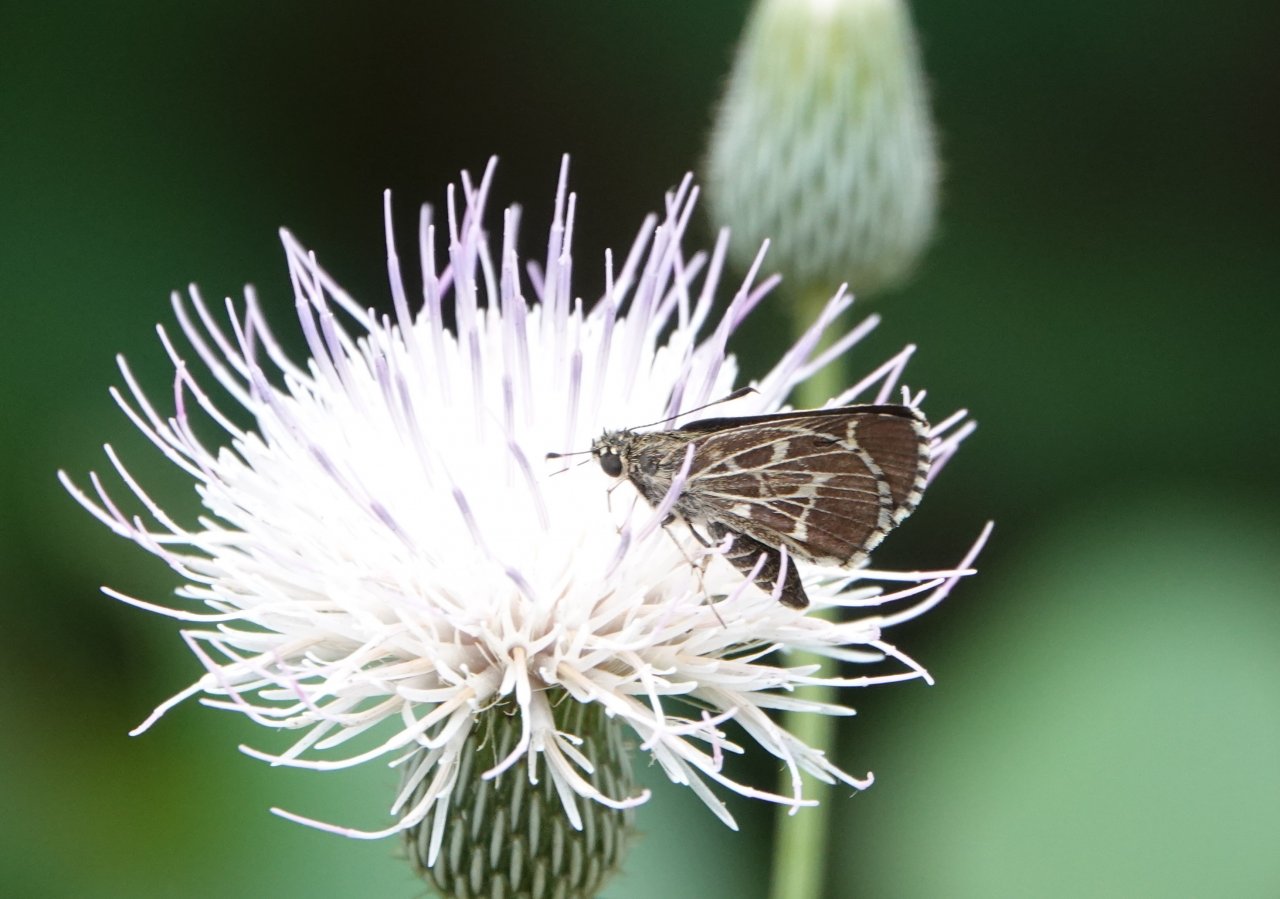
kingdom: Animalia
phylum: Arthropoda
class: Insecta
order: Lepidoptera
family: Hesperiidae
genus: Mastor
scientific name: Mastor aesculapius
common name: Lace-winged Roadside-Skipper
